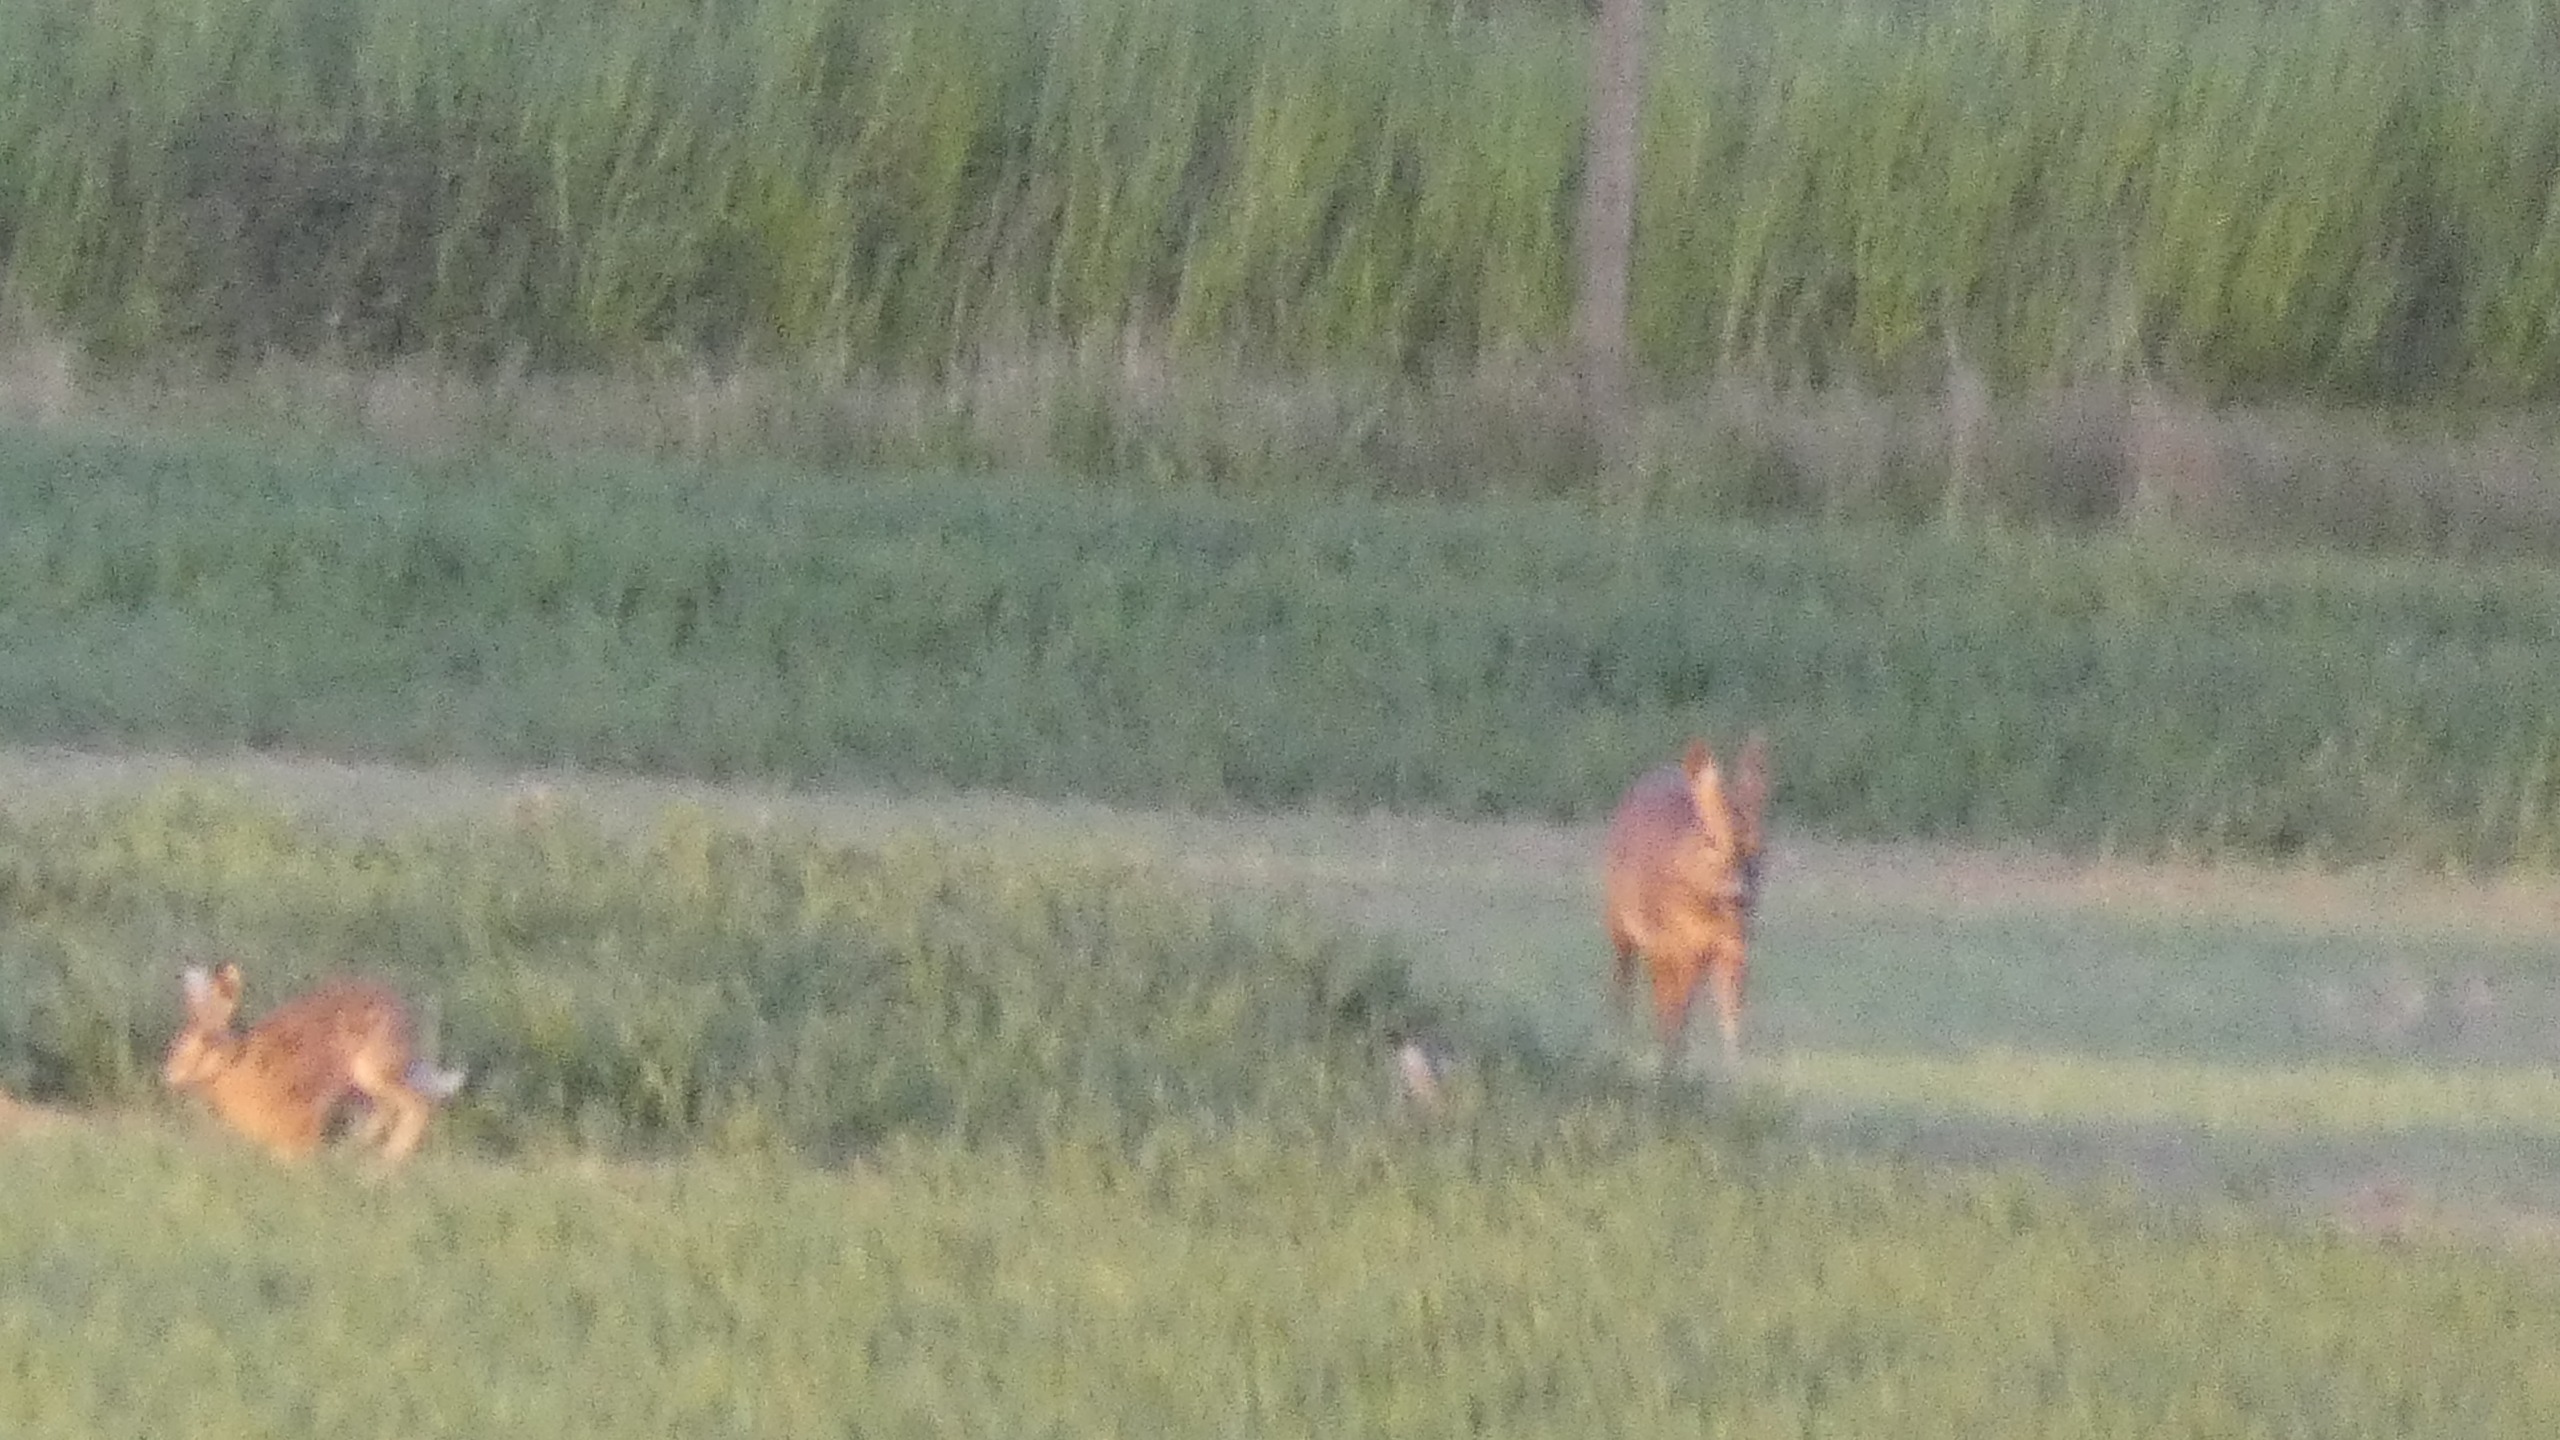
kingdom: Animalia
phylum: Chordata
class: Mammalia
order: Lagomorpha
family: Leporidae
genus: Lepus
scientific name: Lepus europaeus
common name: Hare
